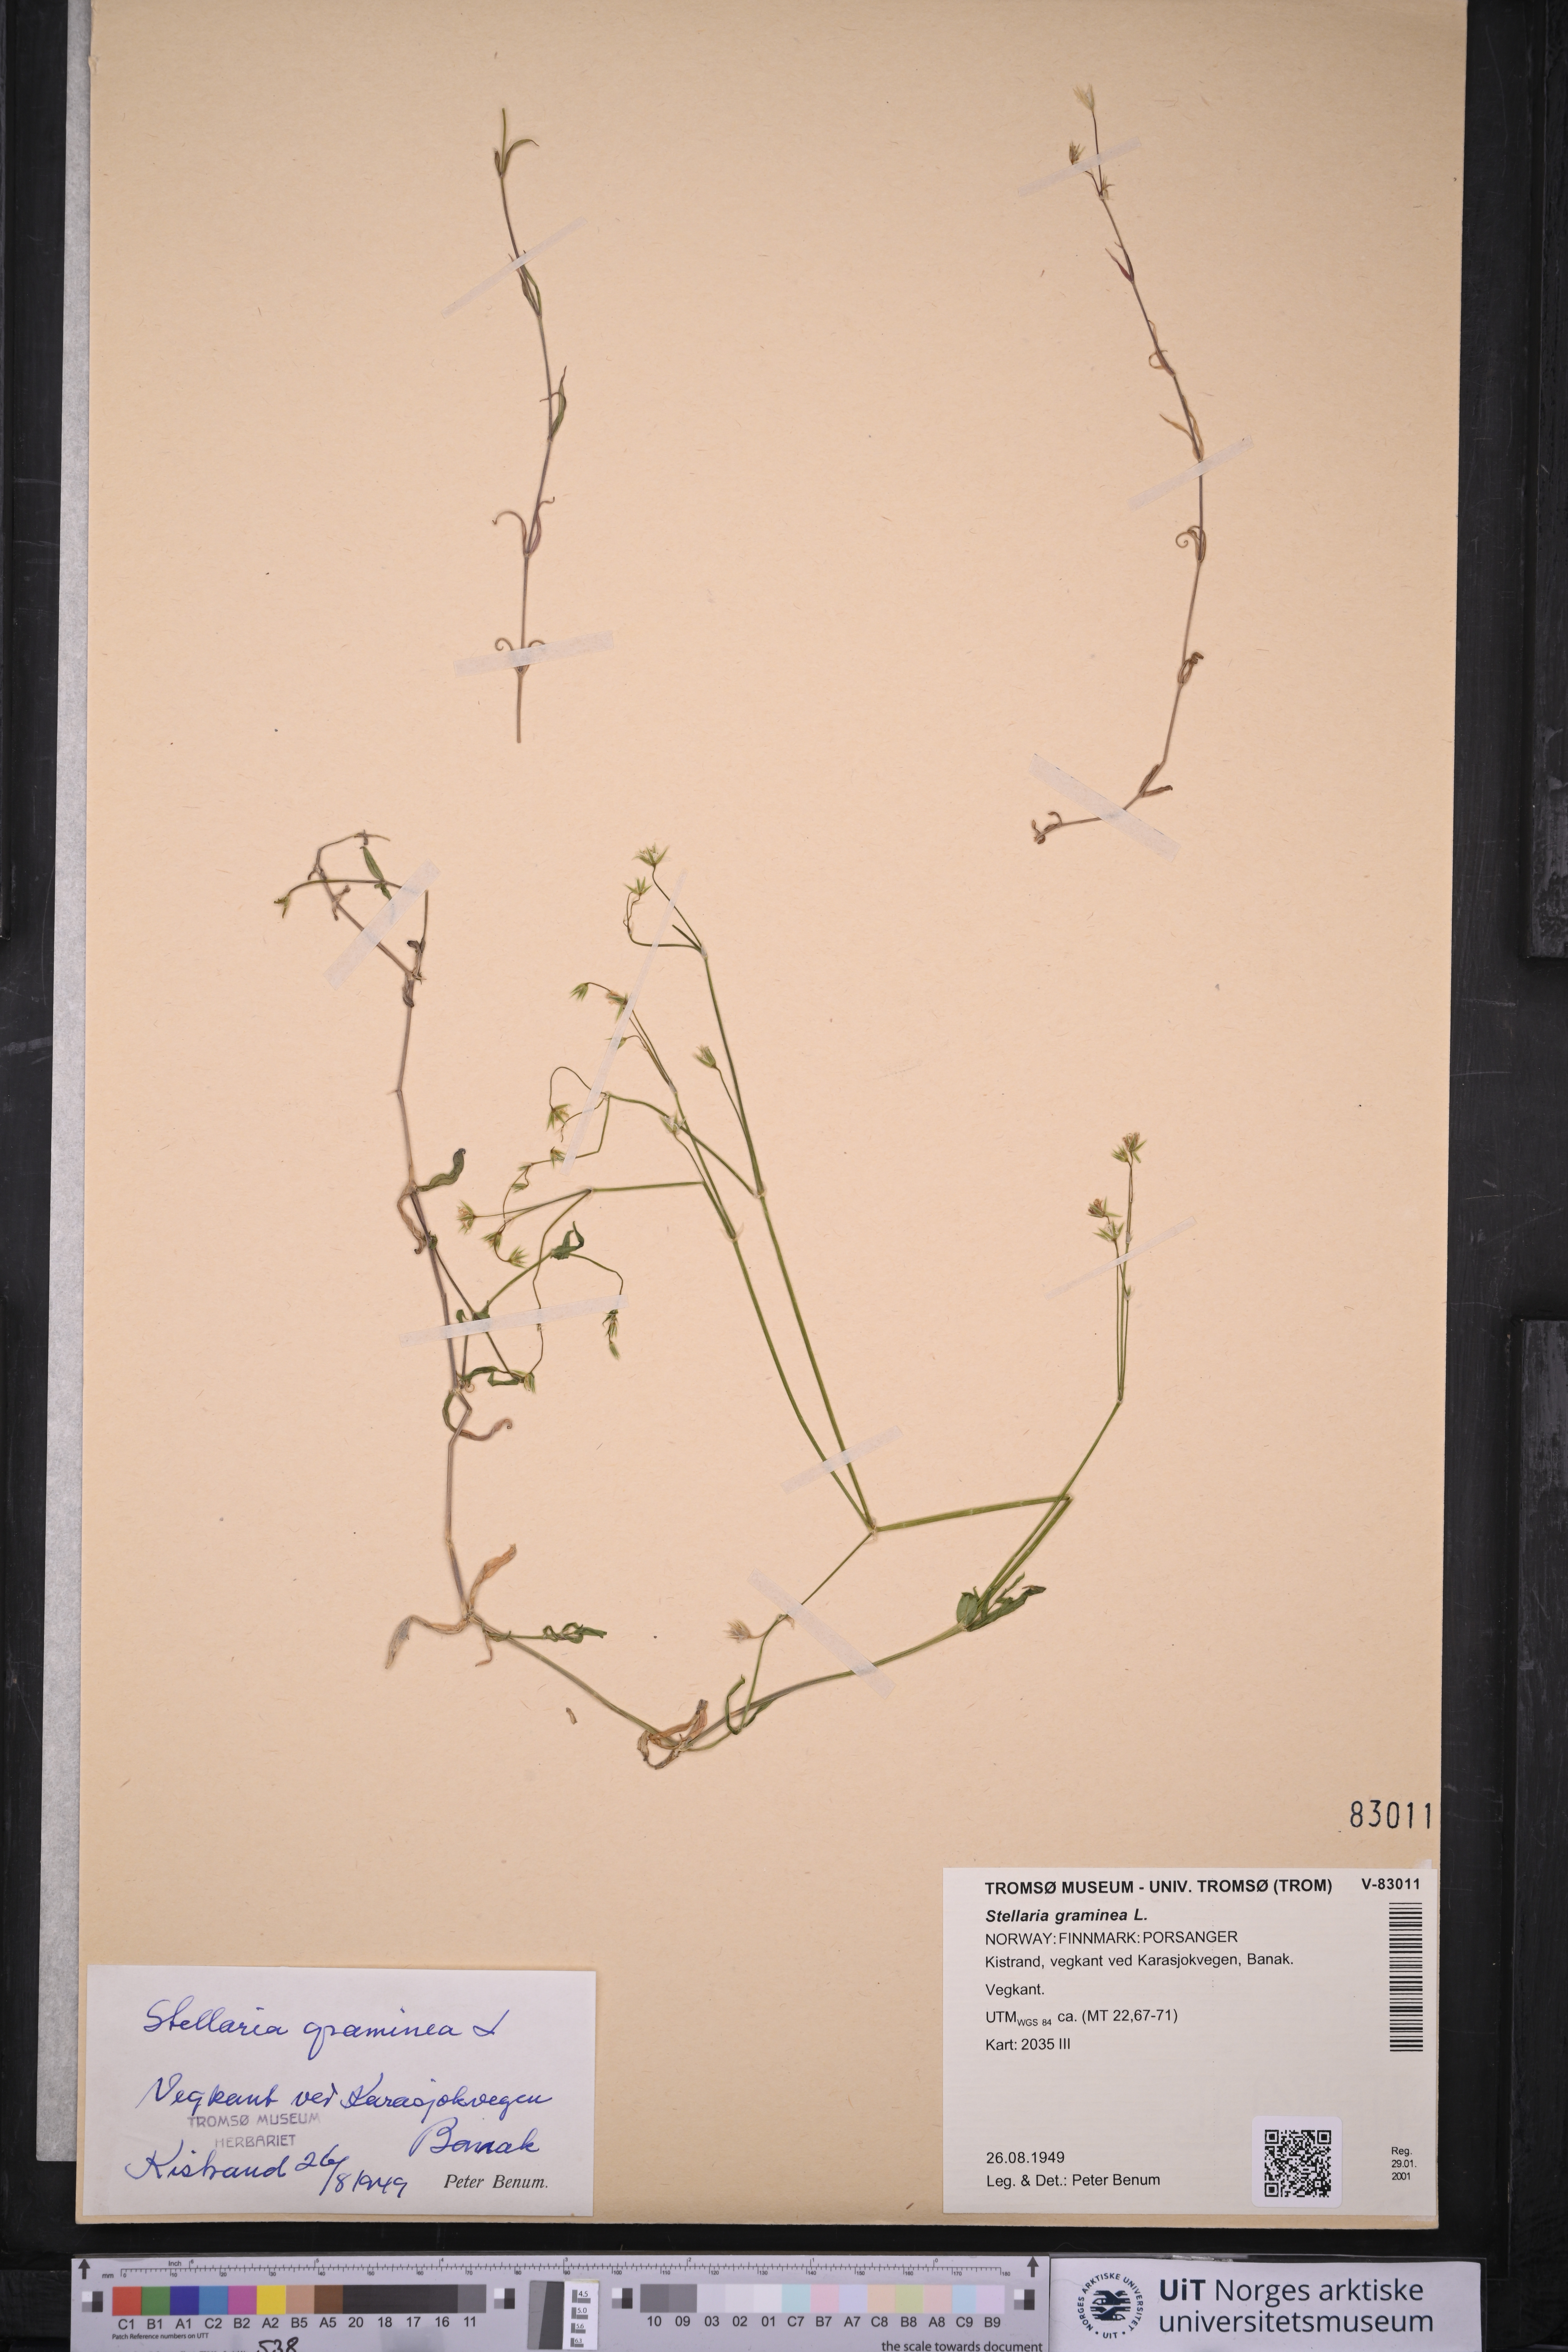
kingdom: Plantae
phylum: Tracheophyta
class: Magnoliopsida
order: Caryophyllales
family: Caryophyllaceae
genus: Stellaria
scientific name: Stellaria graminea
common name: Grass-like starwort
